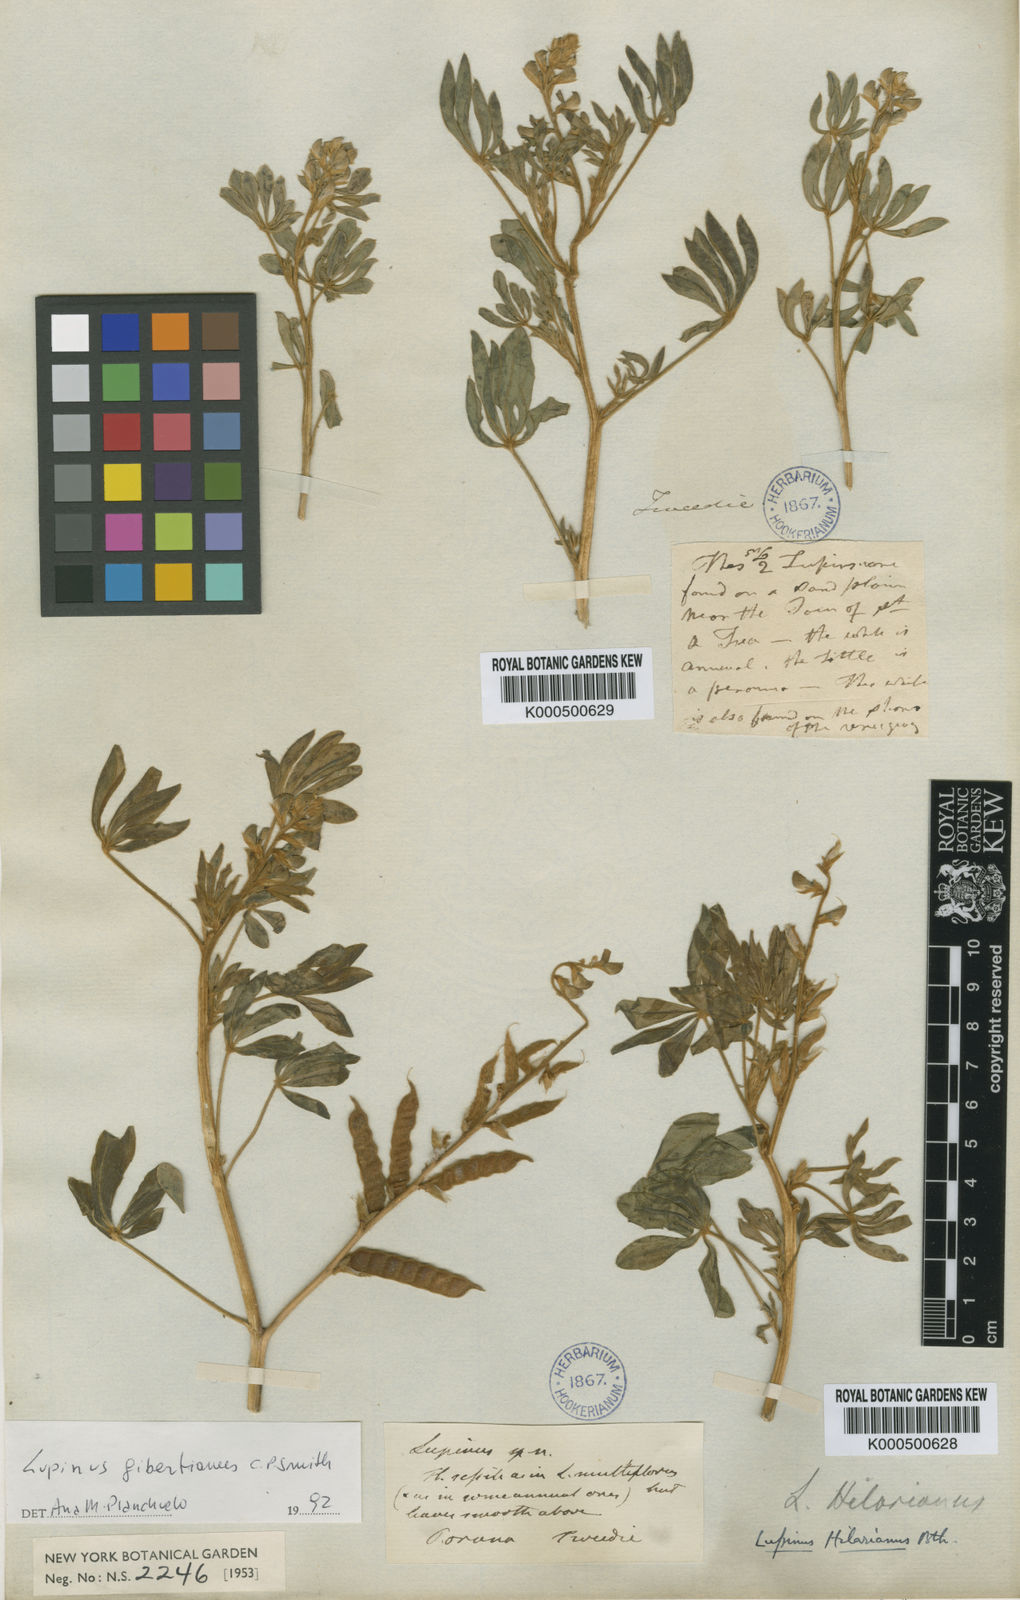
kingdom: Plantae
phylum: Tracheophyta
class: Magnoliopsida
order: Fabales
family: Fabaceae
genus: Lupinus
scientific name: Lupinus gibertianus
